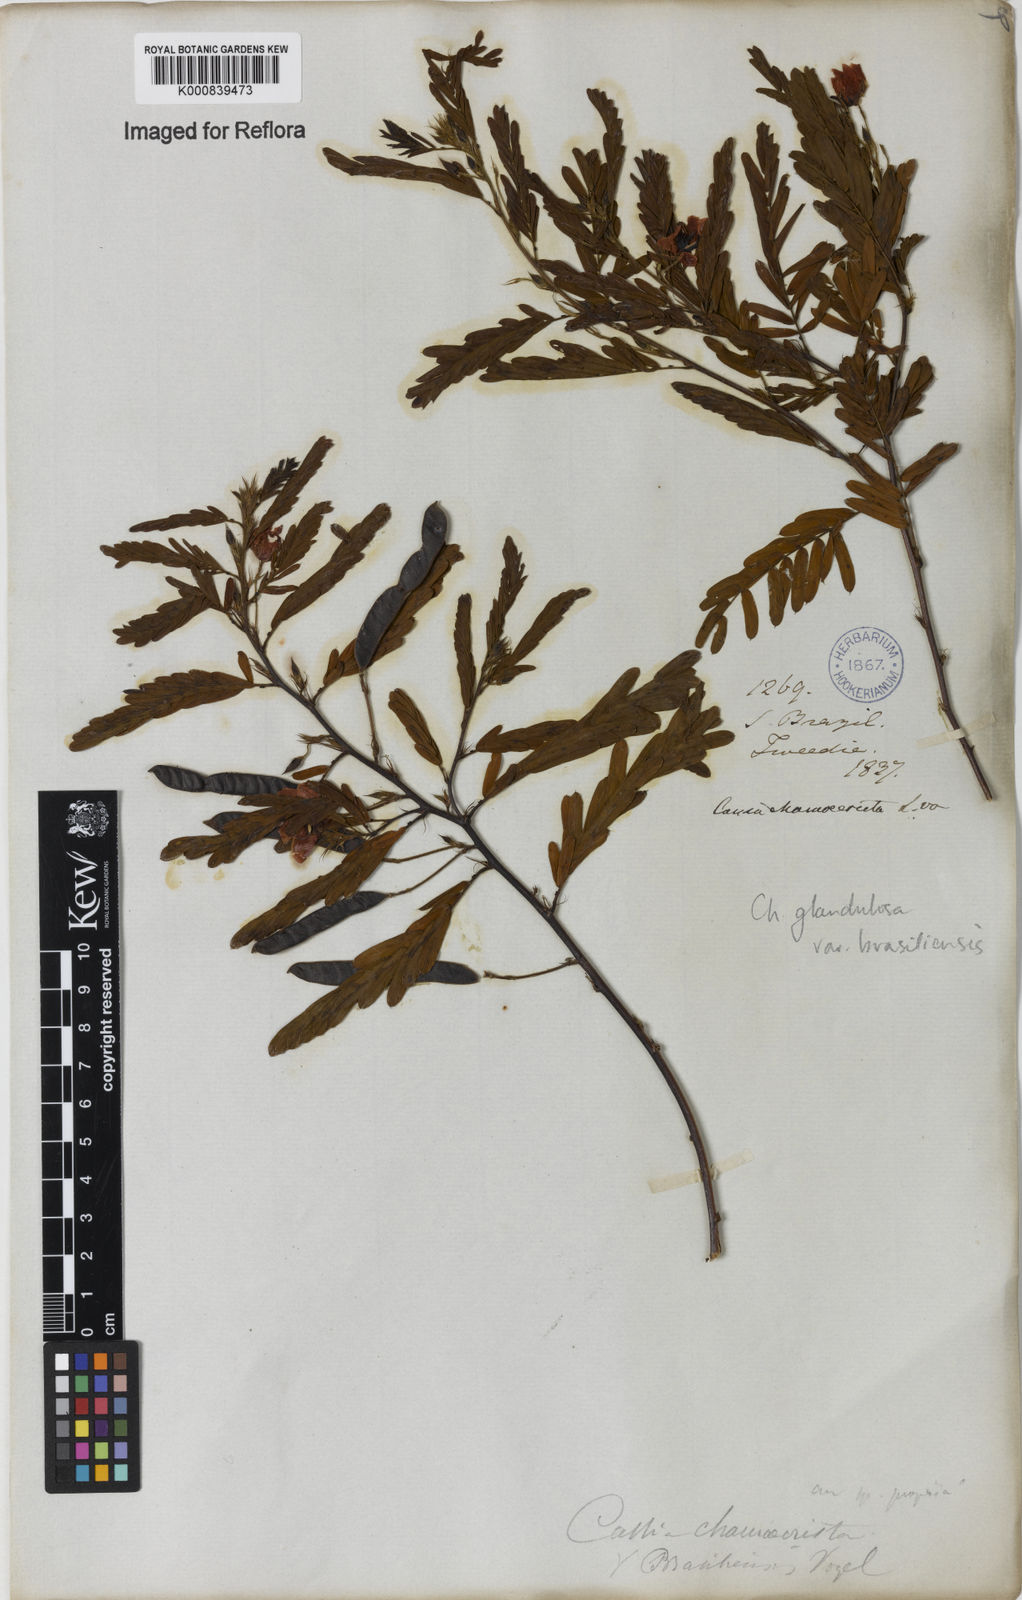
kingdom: Plantae
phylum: Tracheophyta
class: Magnoliopsida
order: Fabales
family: Fabaceae
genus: Chamaecrista
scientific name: Chamaecrista glandulosa
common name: Wild peas
